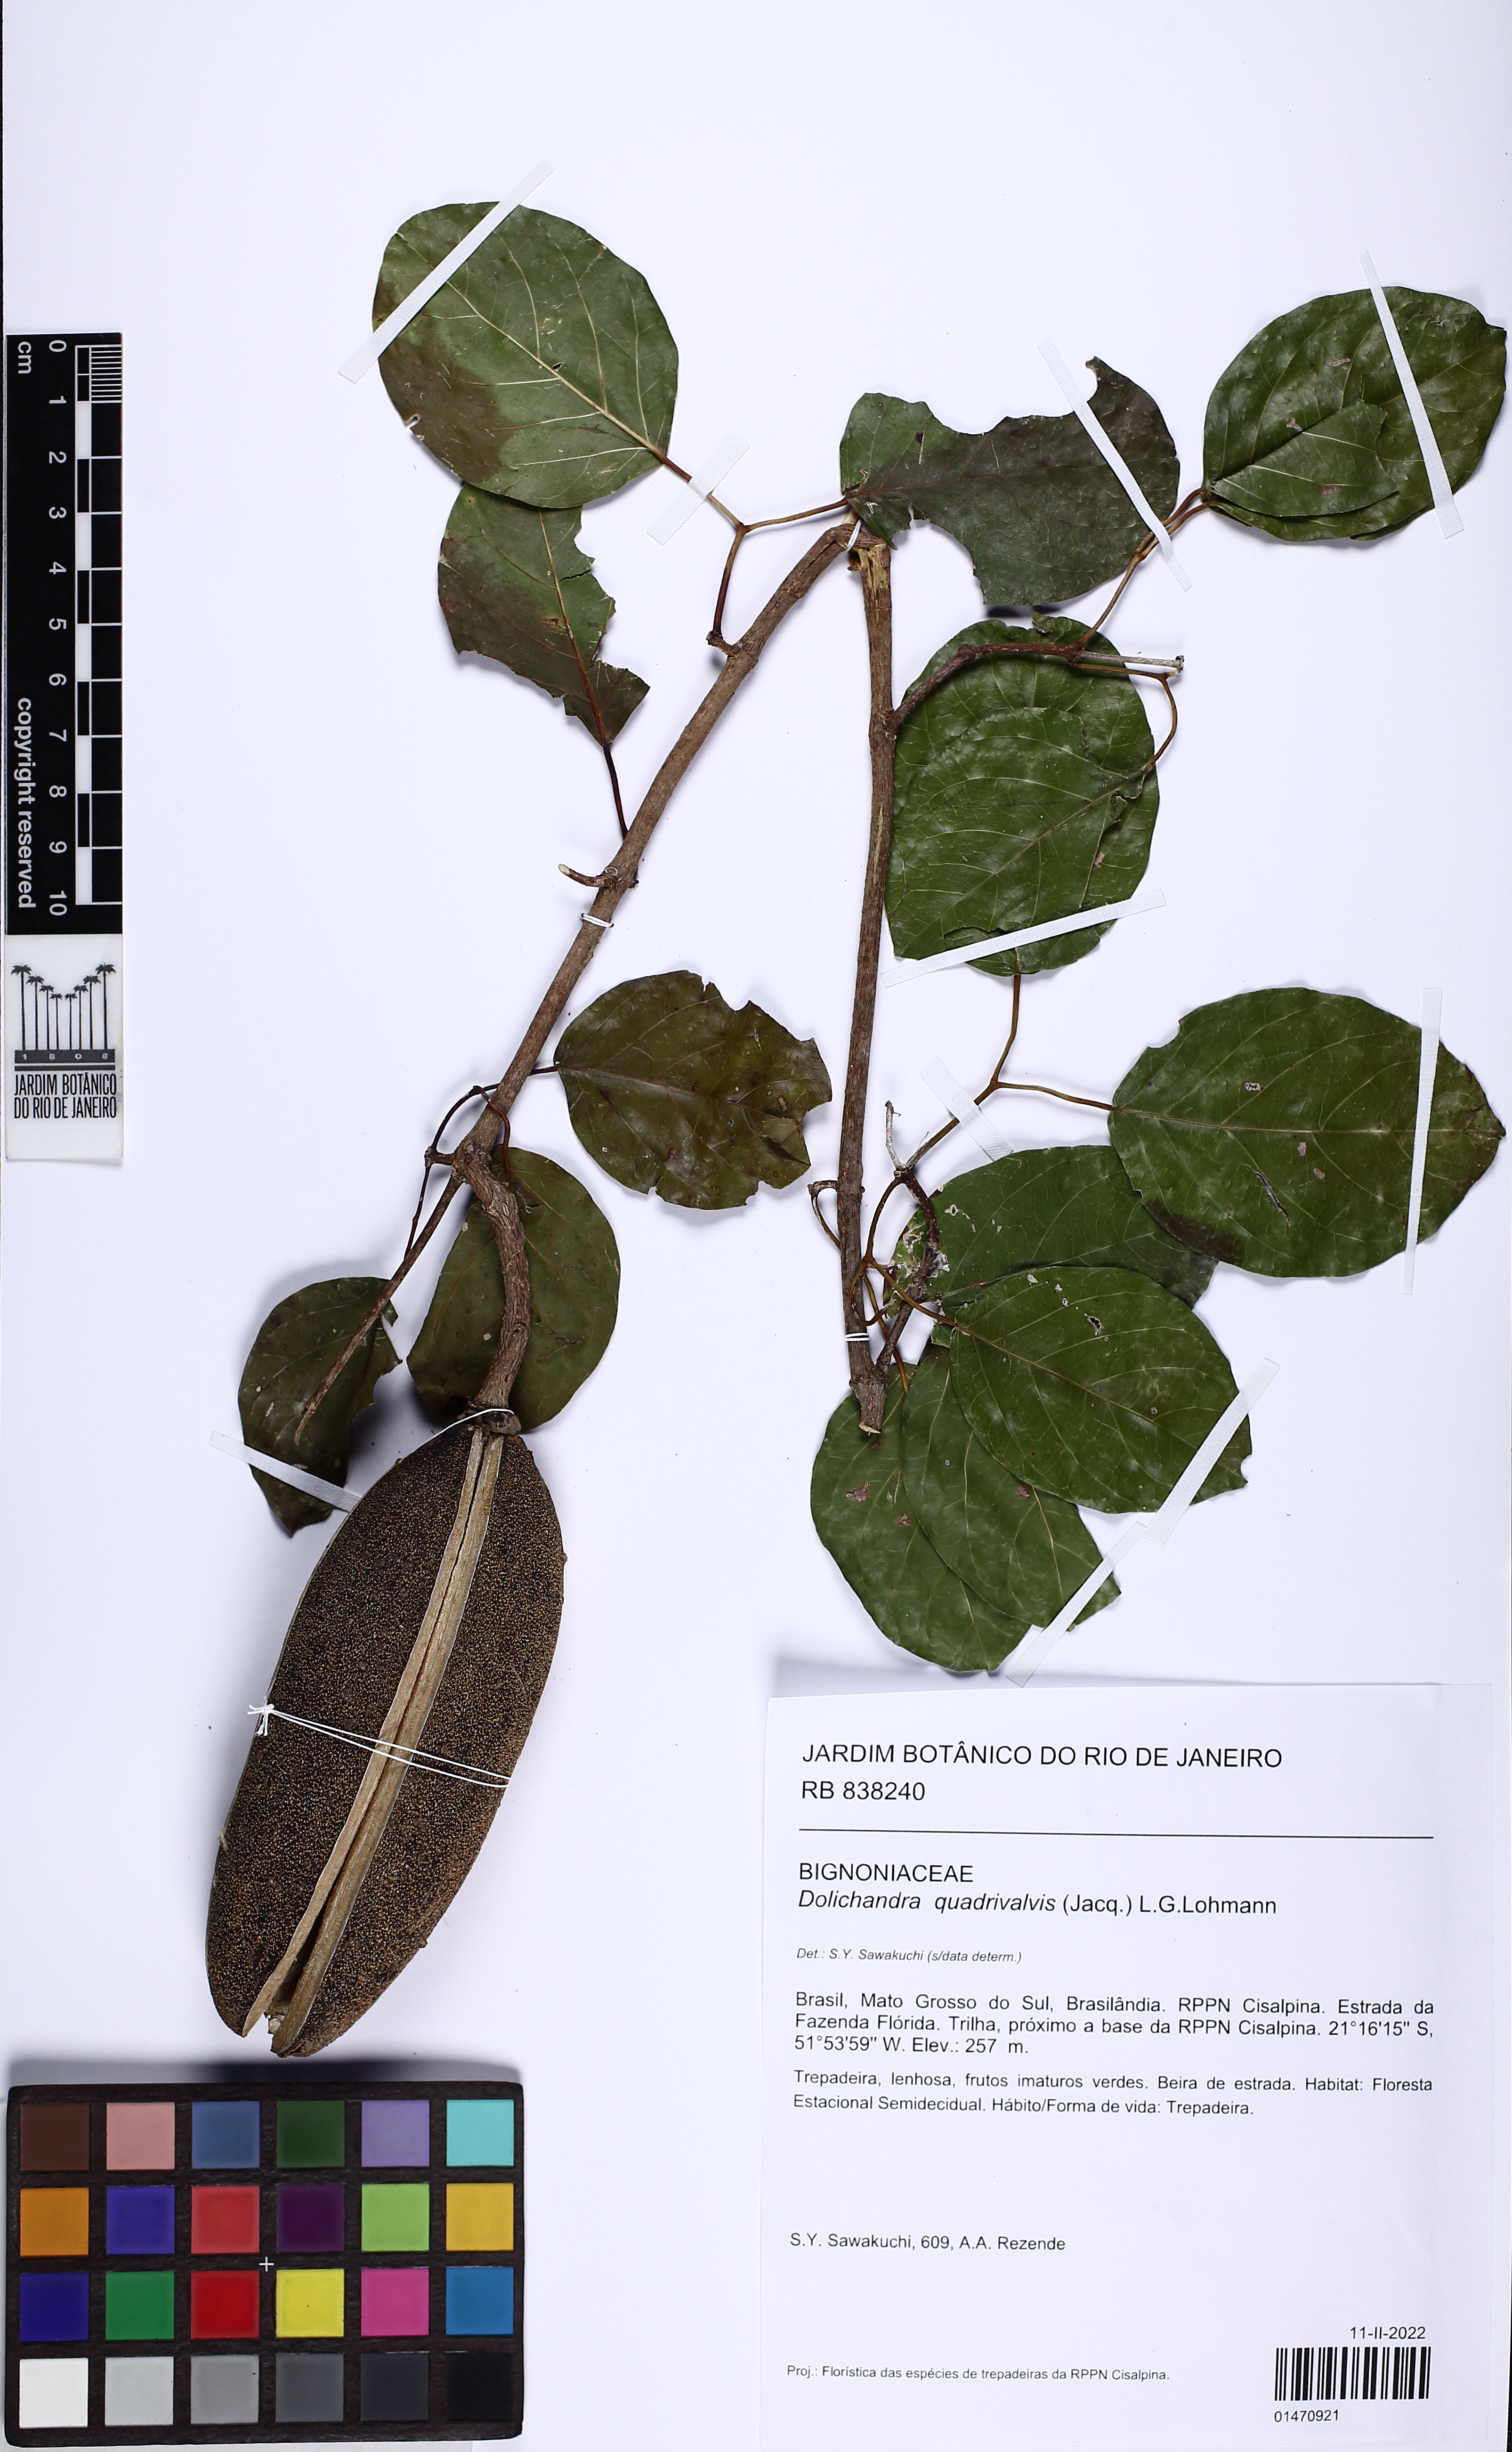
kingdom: Plantae
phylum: Tracheophyta
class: Magnoliopsida
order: Lamiales
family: Bignoniaceae
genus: Dolichandra
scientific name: Dolichandra quadrivalvis
